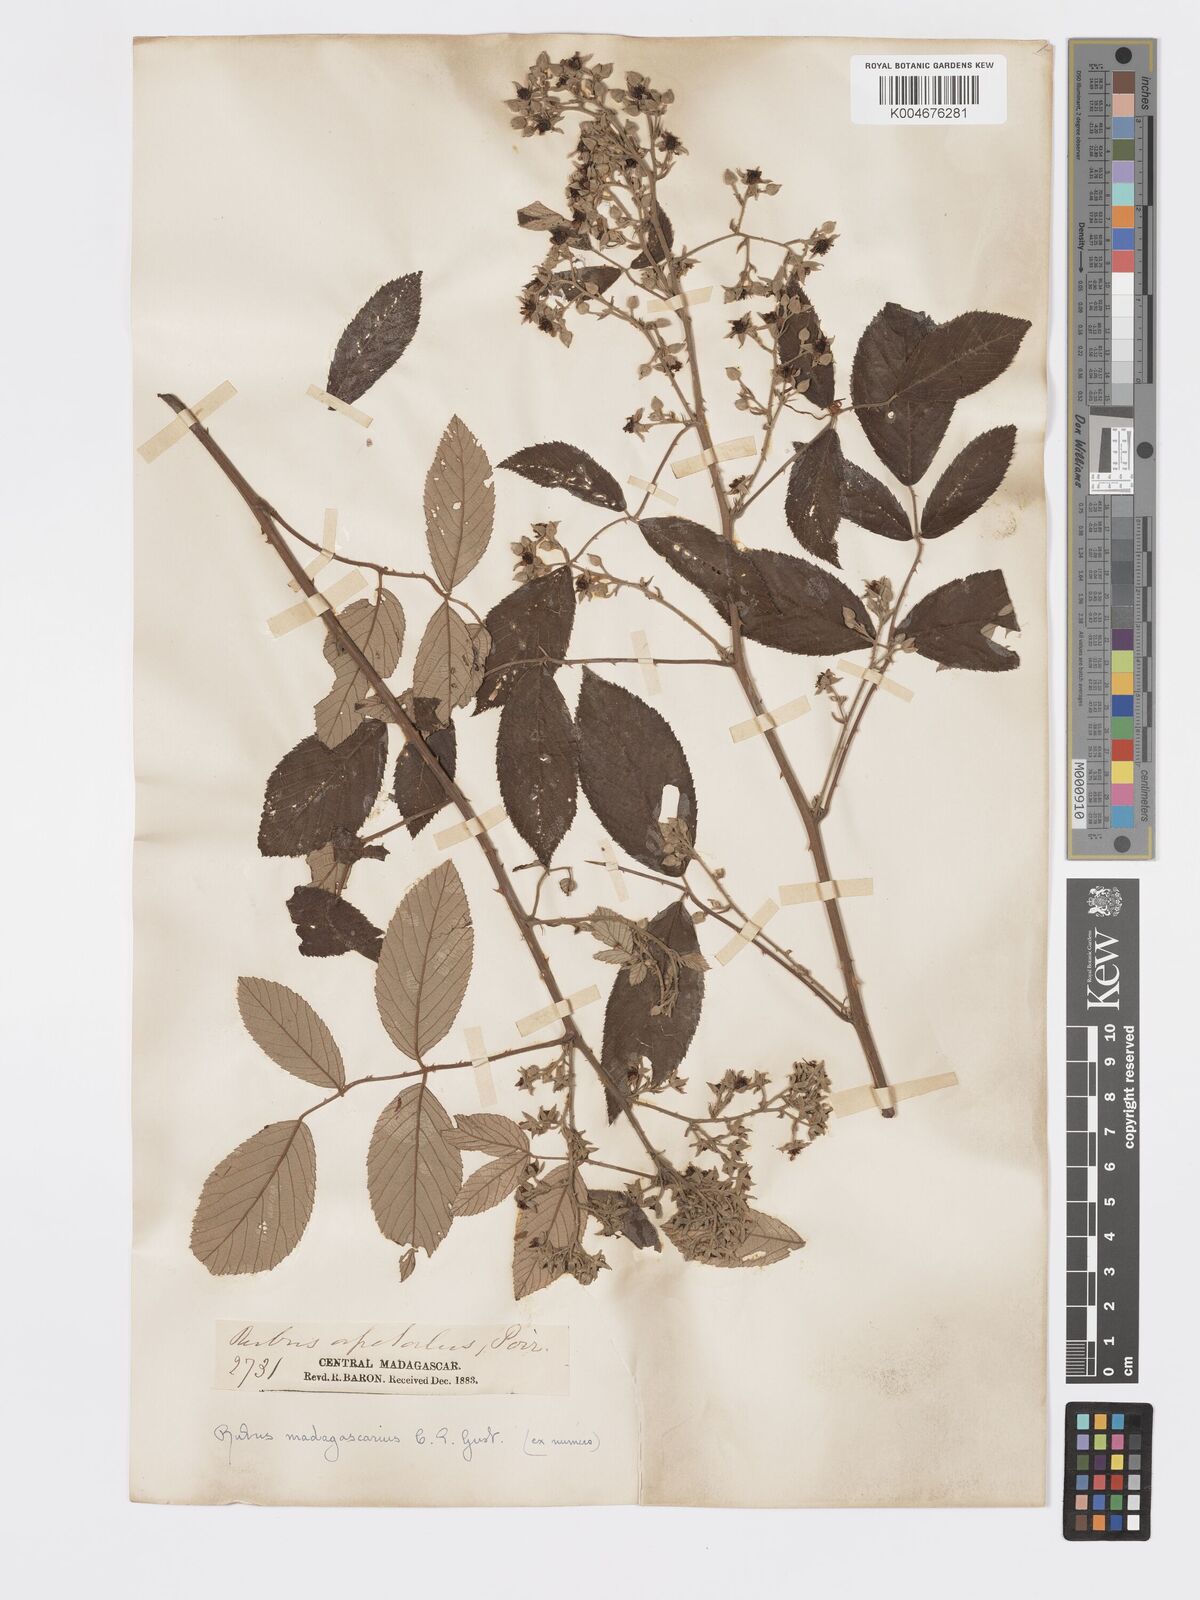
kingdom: Plantae
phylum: Tracheophyta
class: Magnoliopsida
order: Rosales
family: Rosaceae
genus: Rubus
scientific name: Rubus pinnatus
